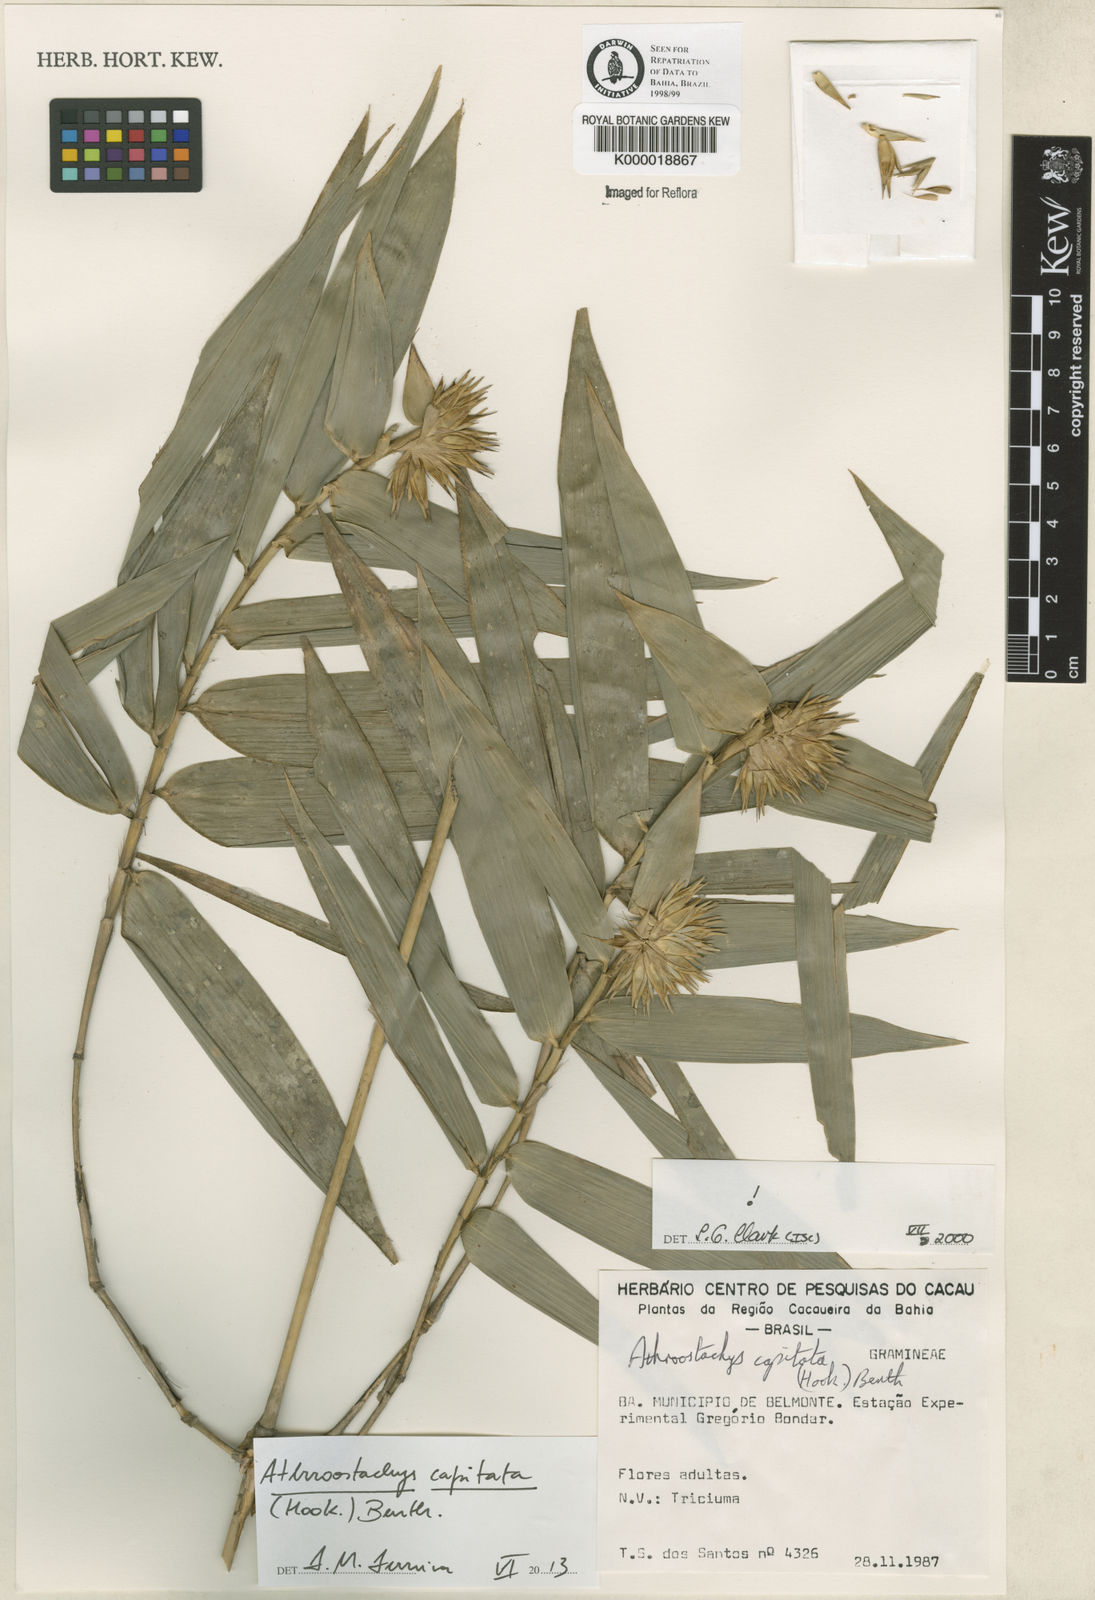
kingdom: Plantae
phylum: Tracheophyta
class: Liliopsida
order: Poales
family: Poaceae
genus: Athroostachys
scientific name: Athroostachys capitata
